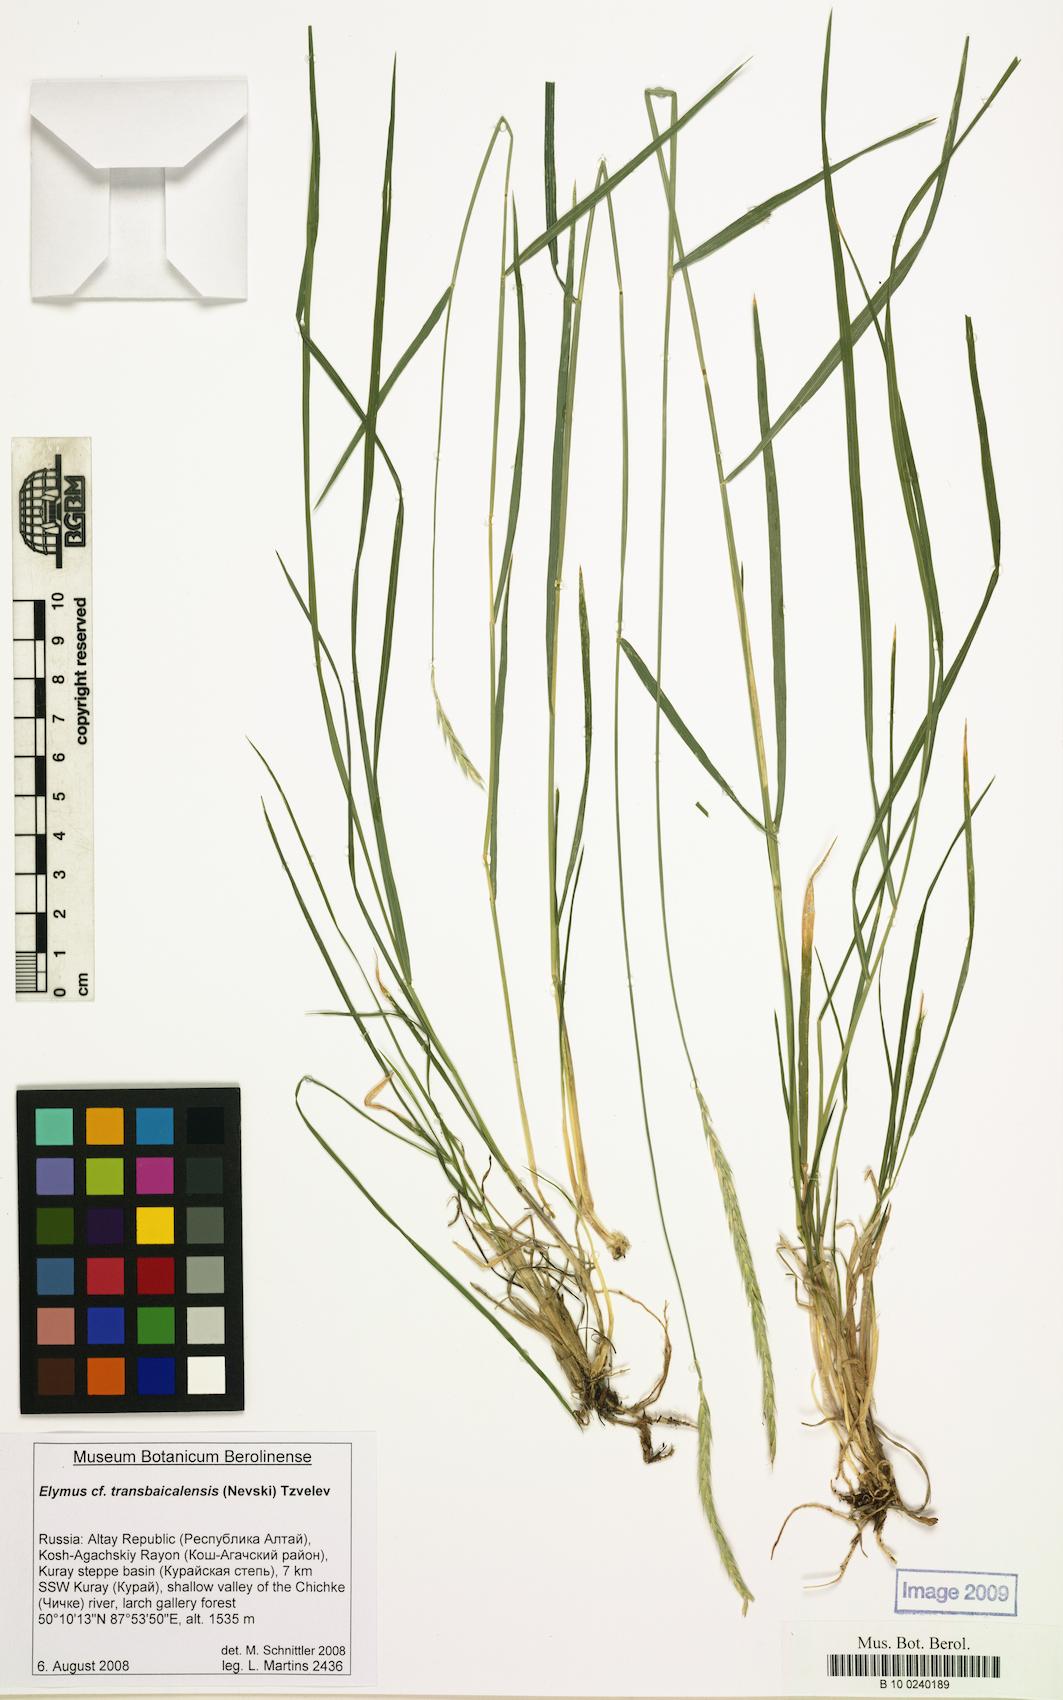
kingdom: Plantae
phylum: Tracheophyta
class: Liliopsida
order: Poales
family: Poaceae
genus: Elymus
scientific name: Elymus mutabilis
